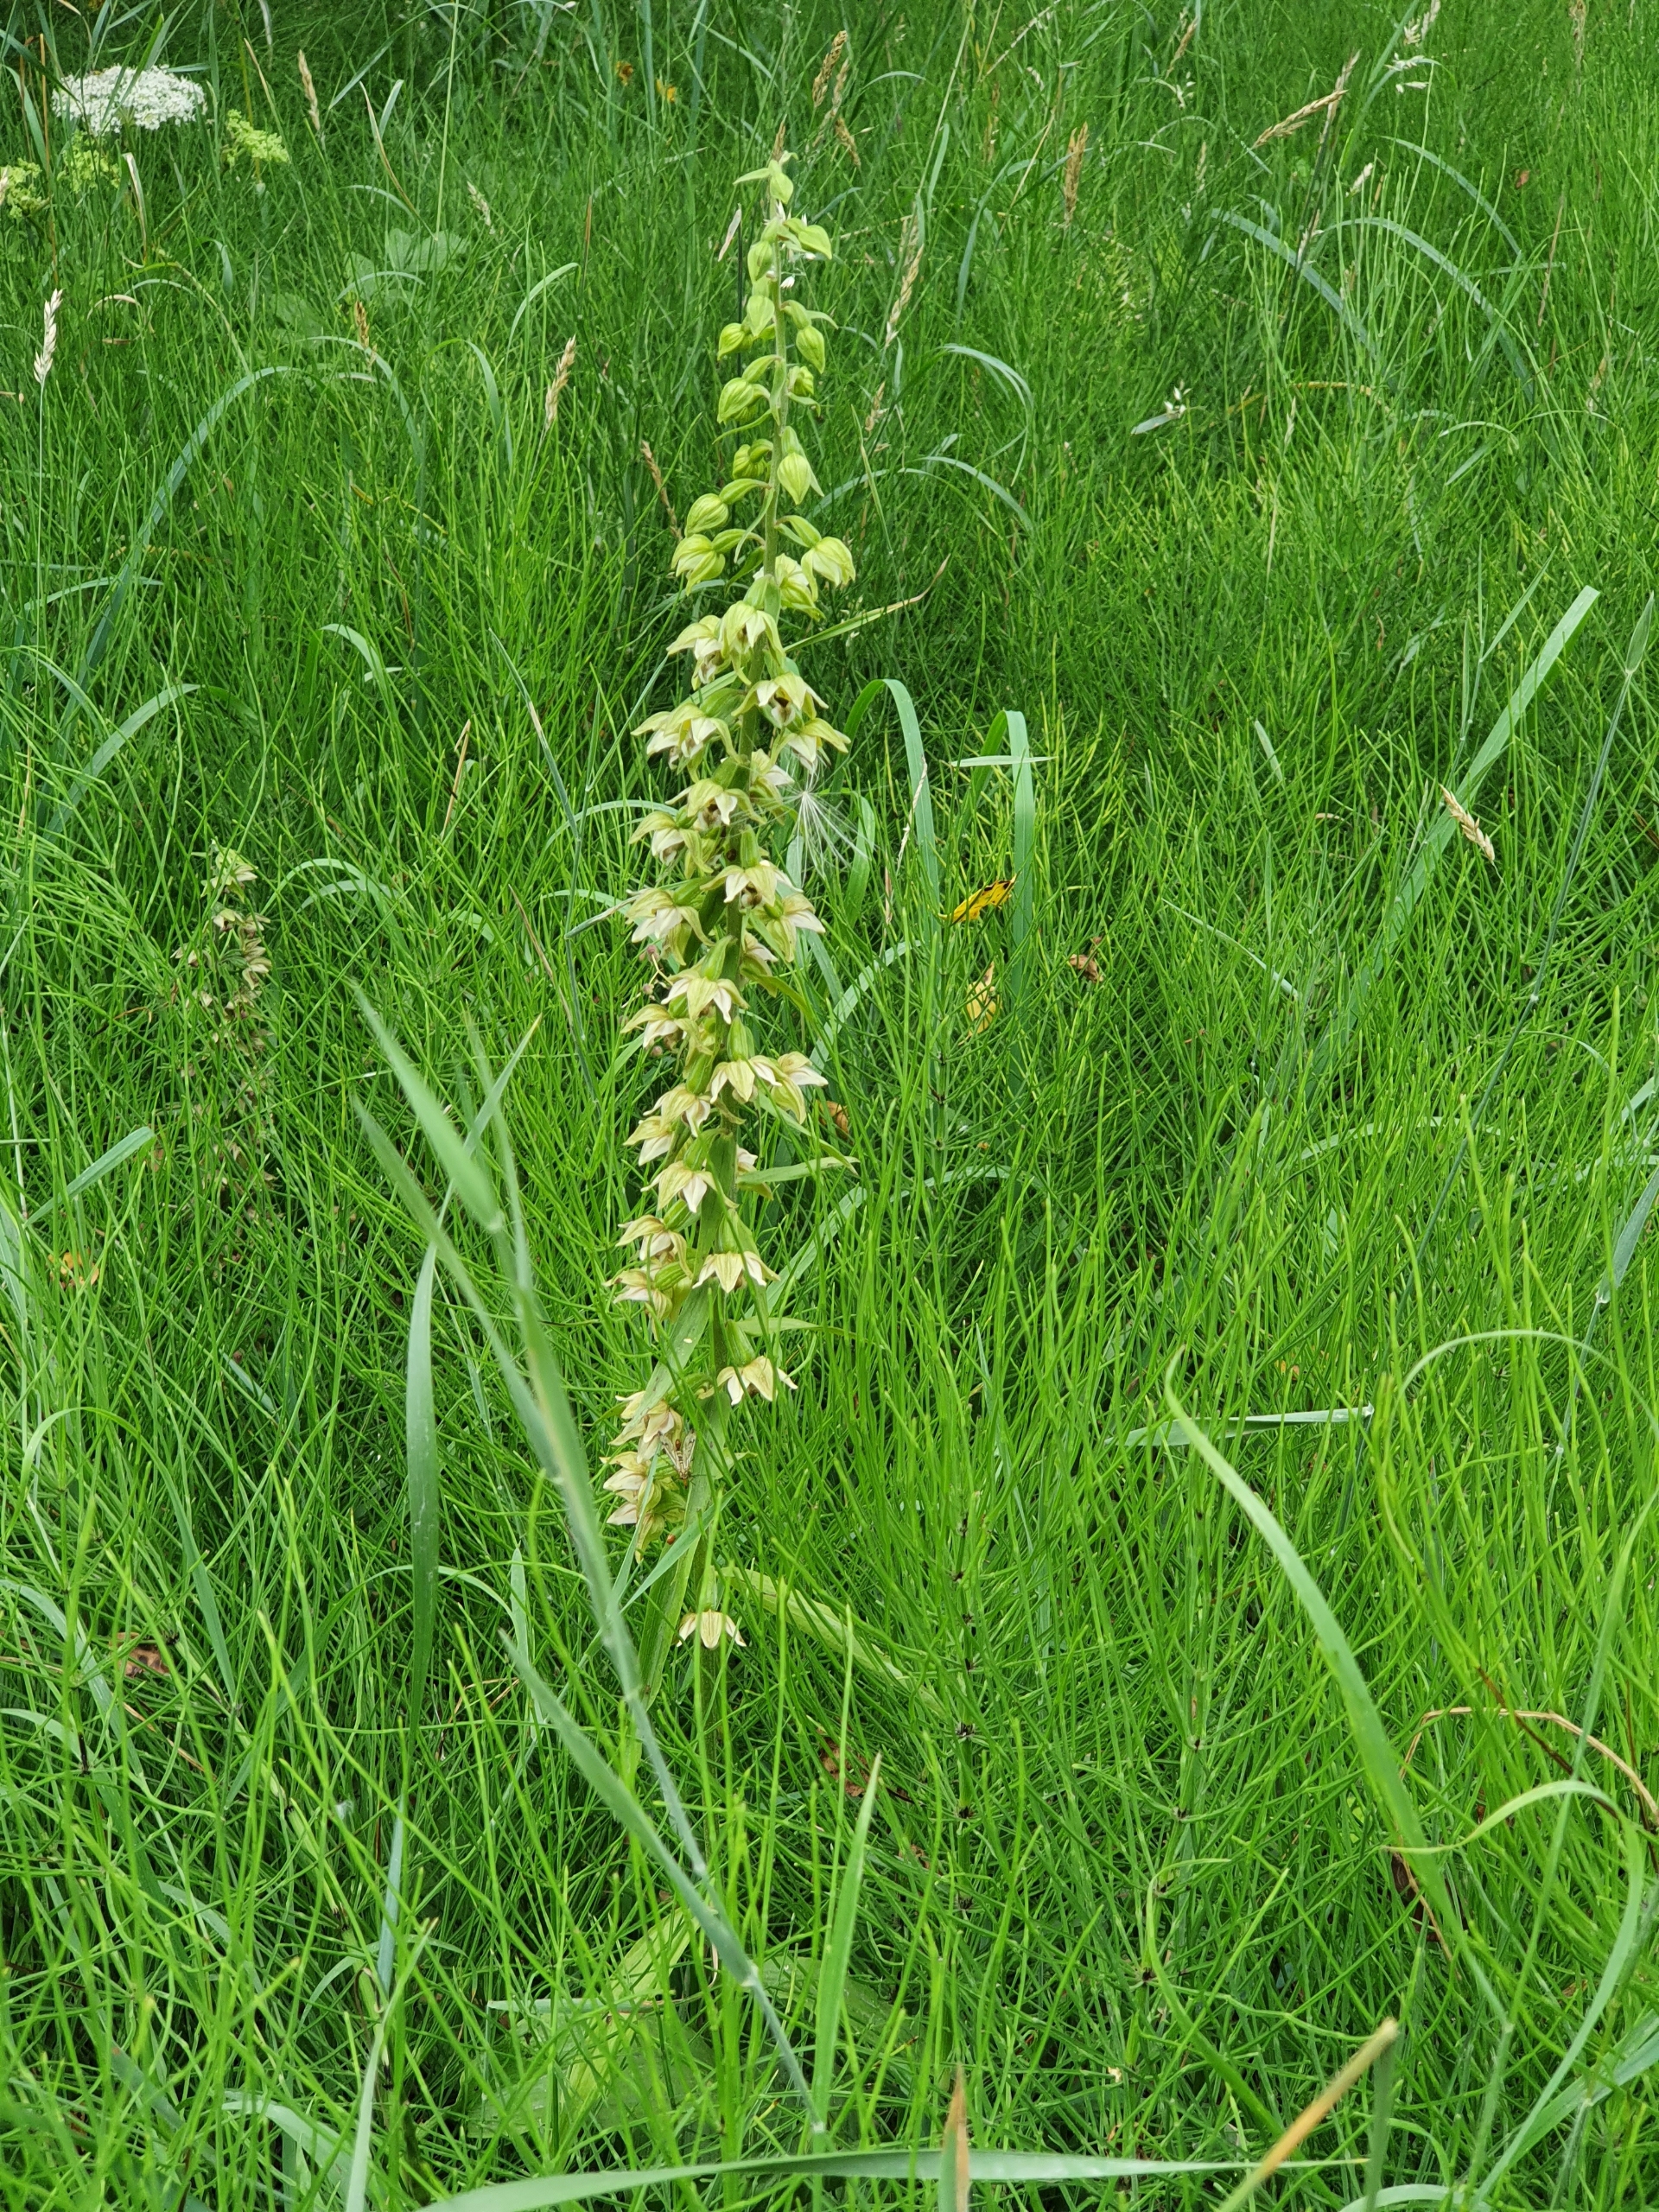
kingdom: Plantae
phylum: Tracheophyta
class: Liliopsida
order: Asparagales
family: Orchidaceae
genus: Epipactis
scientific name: Epipactis helleborine
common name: Skov-hullæbe
